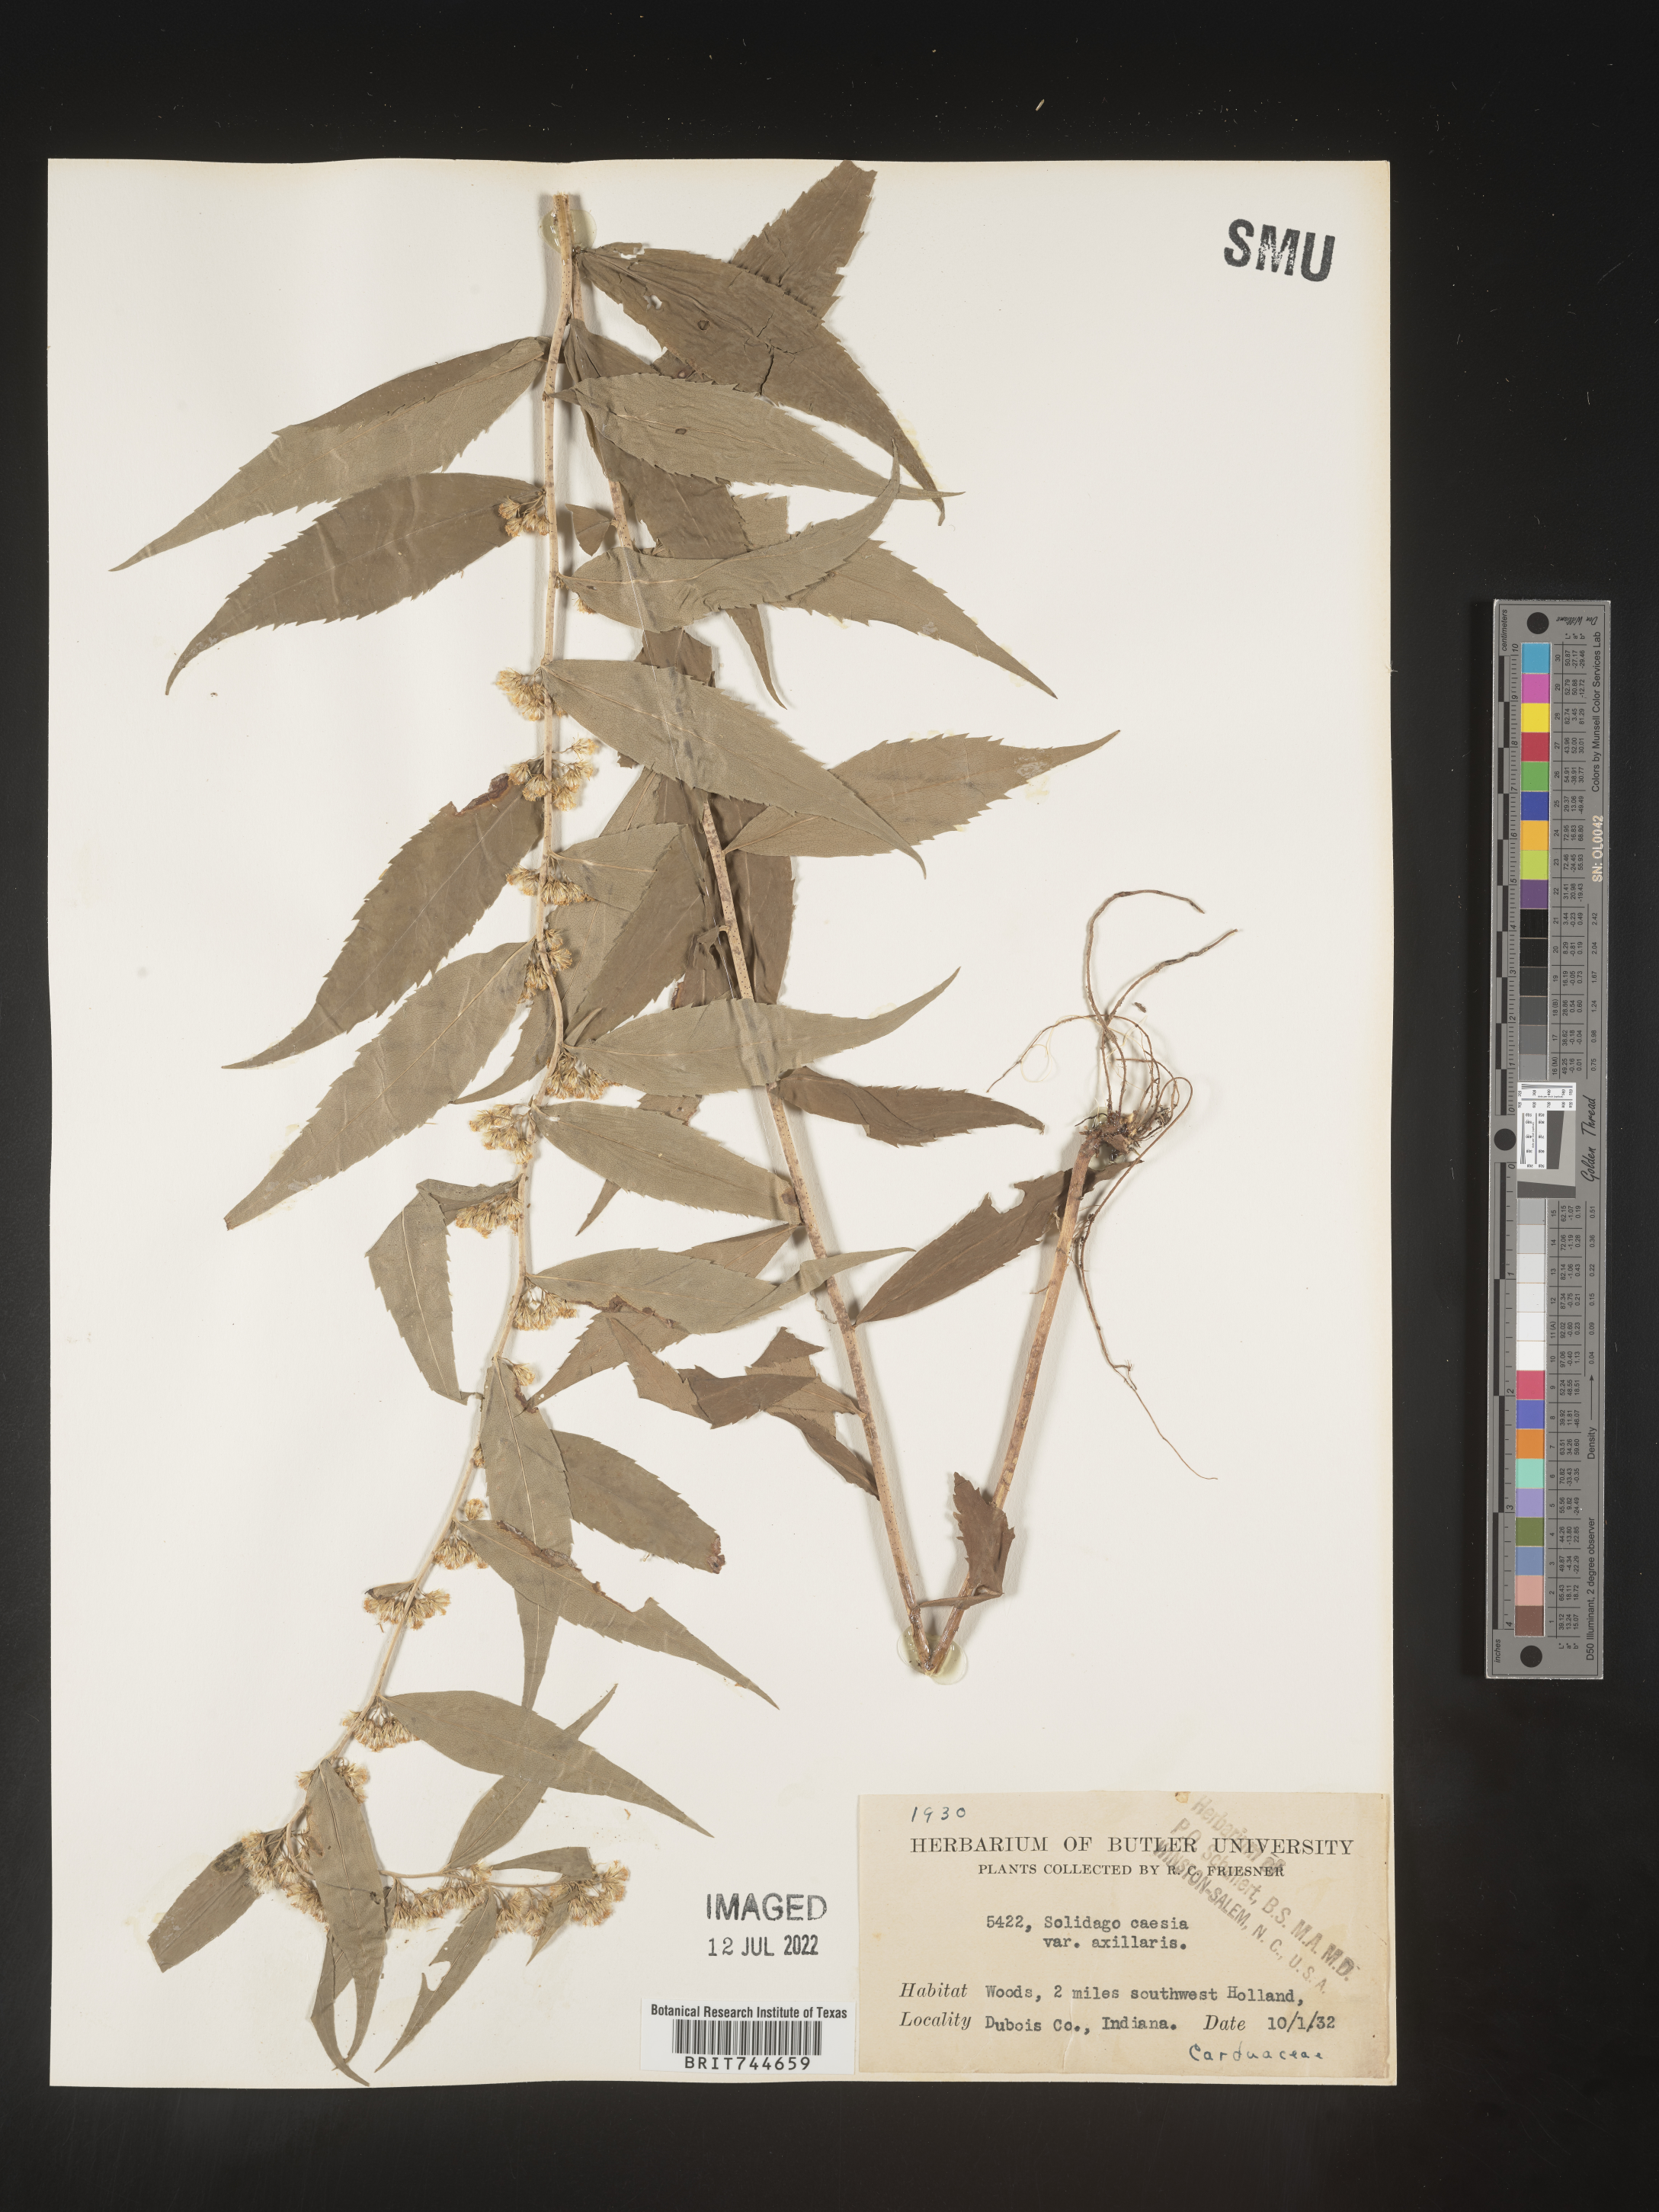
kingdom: Plantae
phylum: Tracheophyta
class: Magnoliopsida
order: Asterales
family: Asteraceae
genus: Solidago
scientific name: Solidago caesia
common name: Woodland goldenrod
